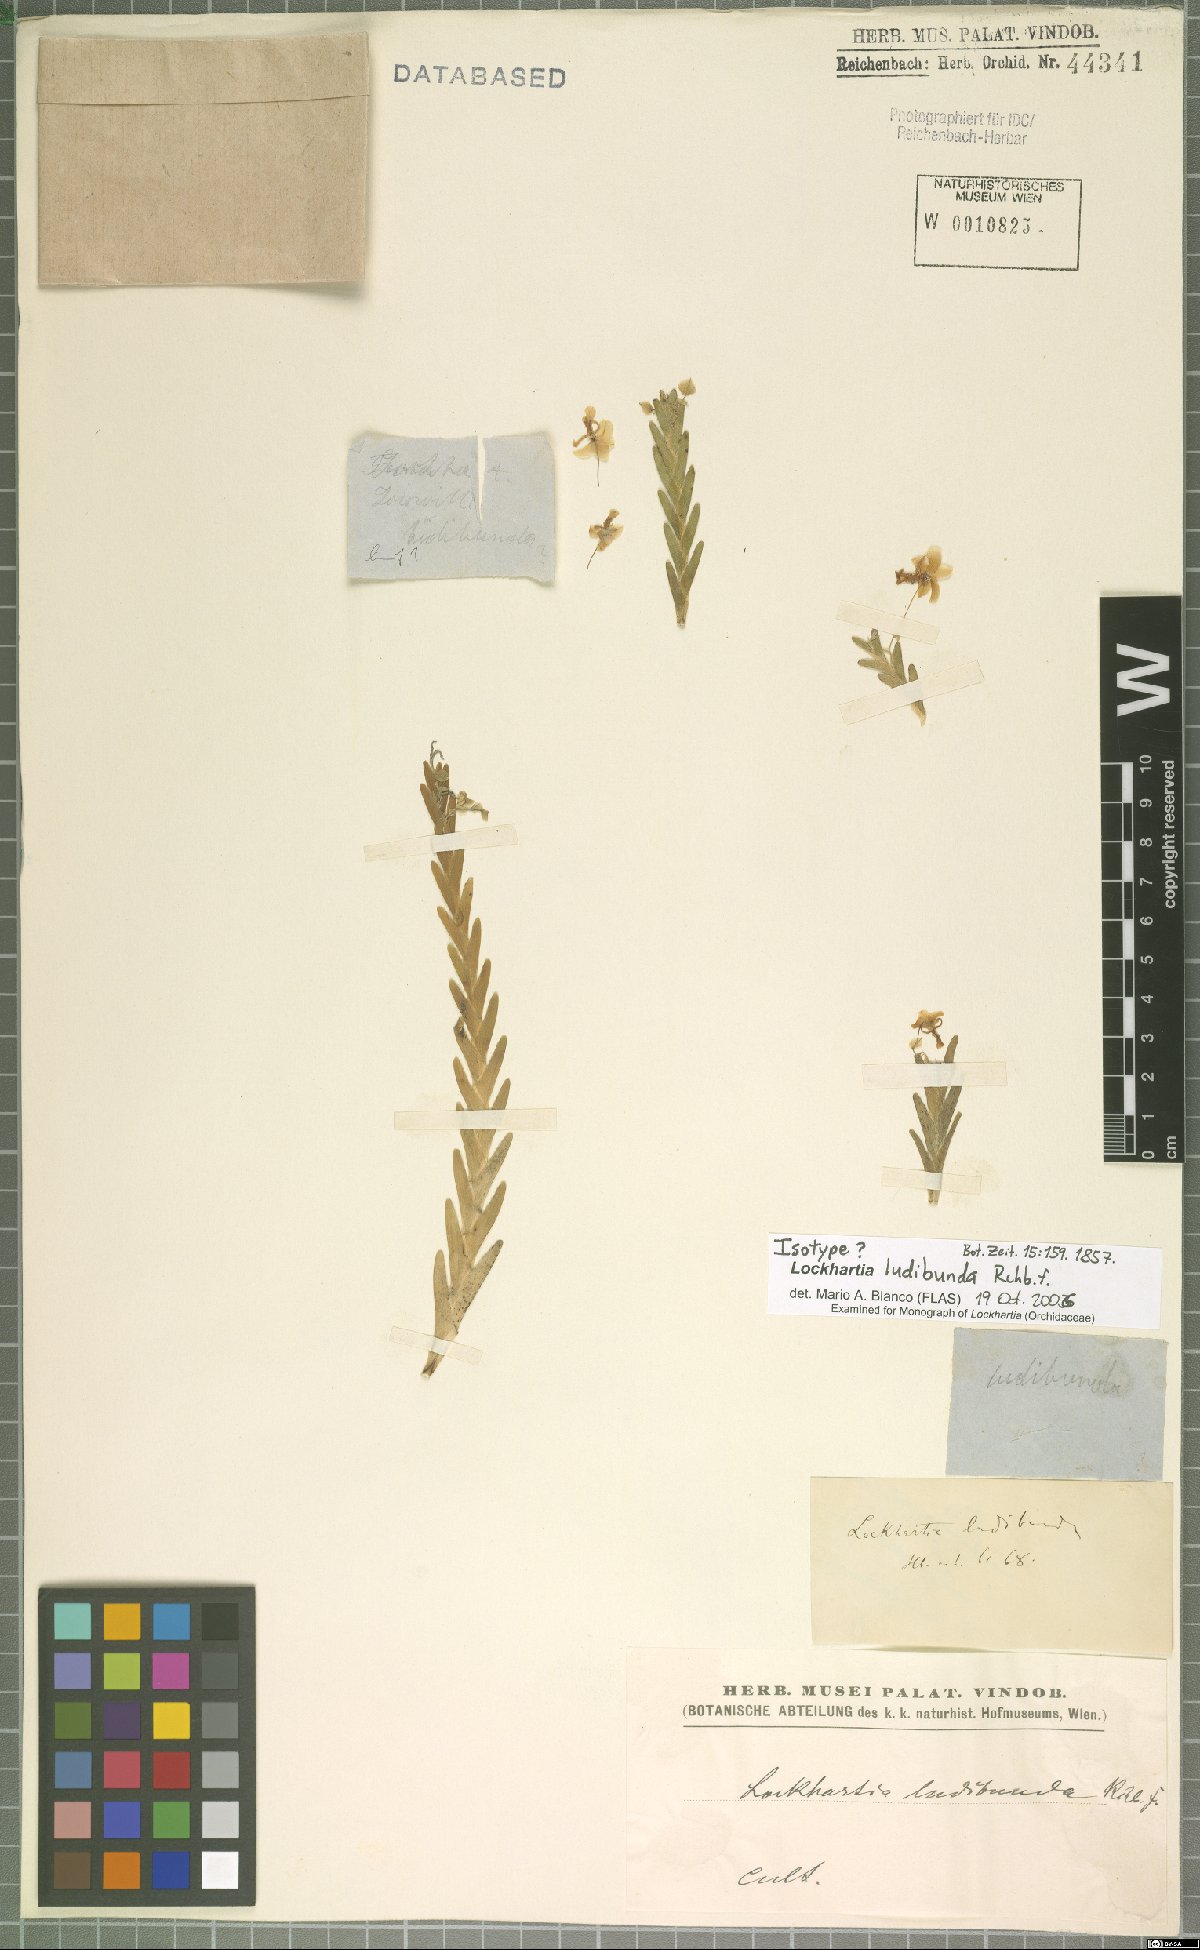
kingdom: Plantae
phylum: Tracheophyta
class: Liliopsida
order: Asparagales
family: Orchidaceae
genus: Lockhartia
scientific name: Lockhartia ludibunda
